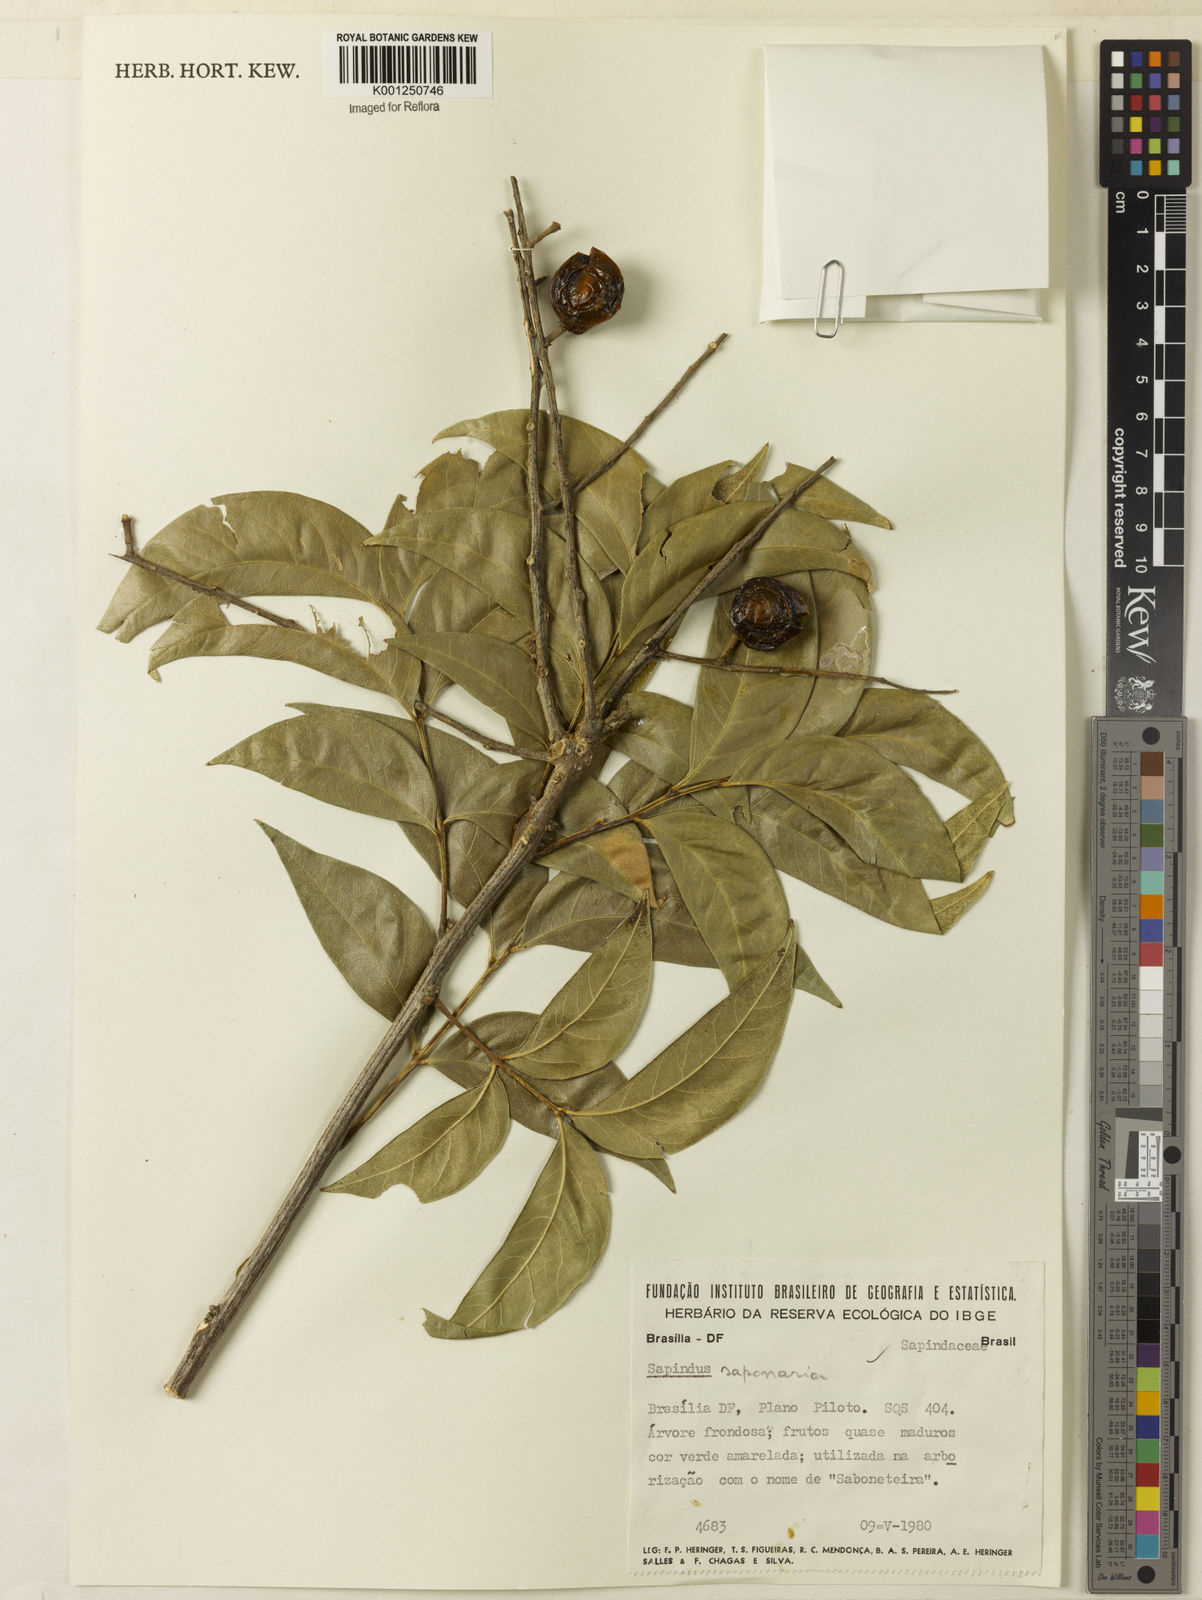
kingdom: Plantae
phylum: Tracheophyta
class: Magnoliopsida
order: Sapindales
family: Sapindaceae
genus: Sapindus
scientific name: Sapindus
